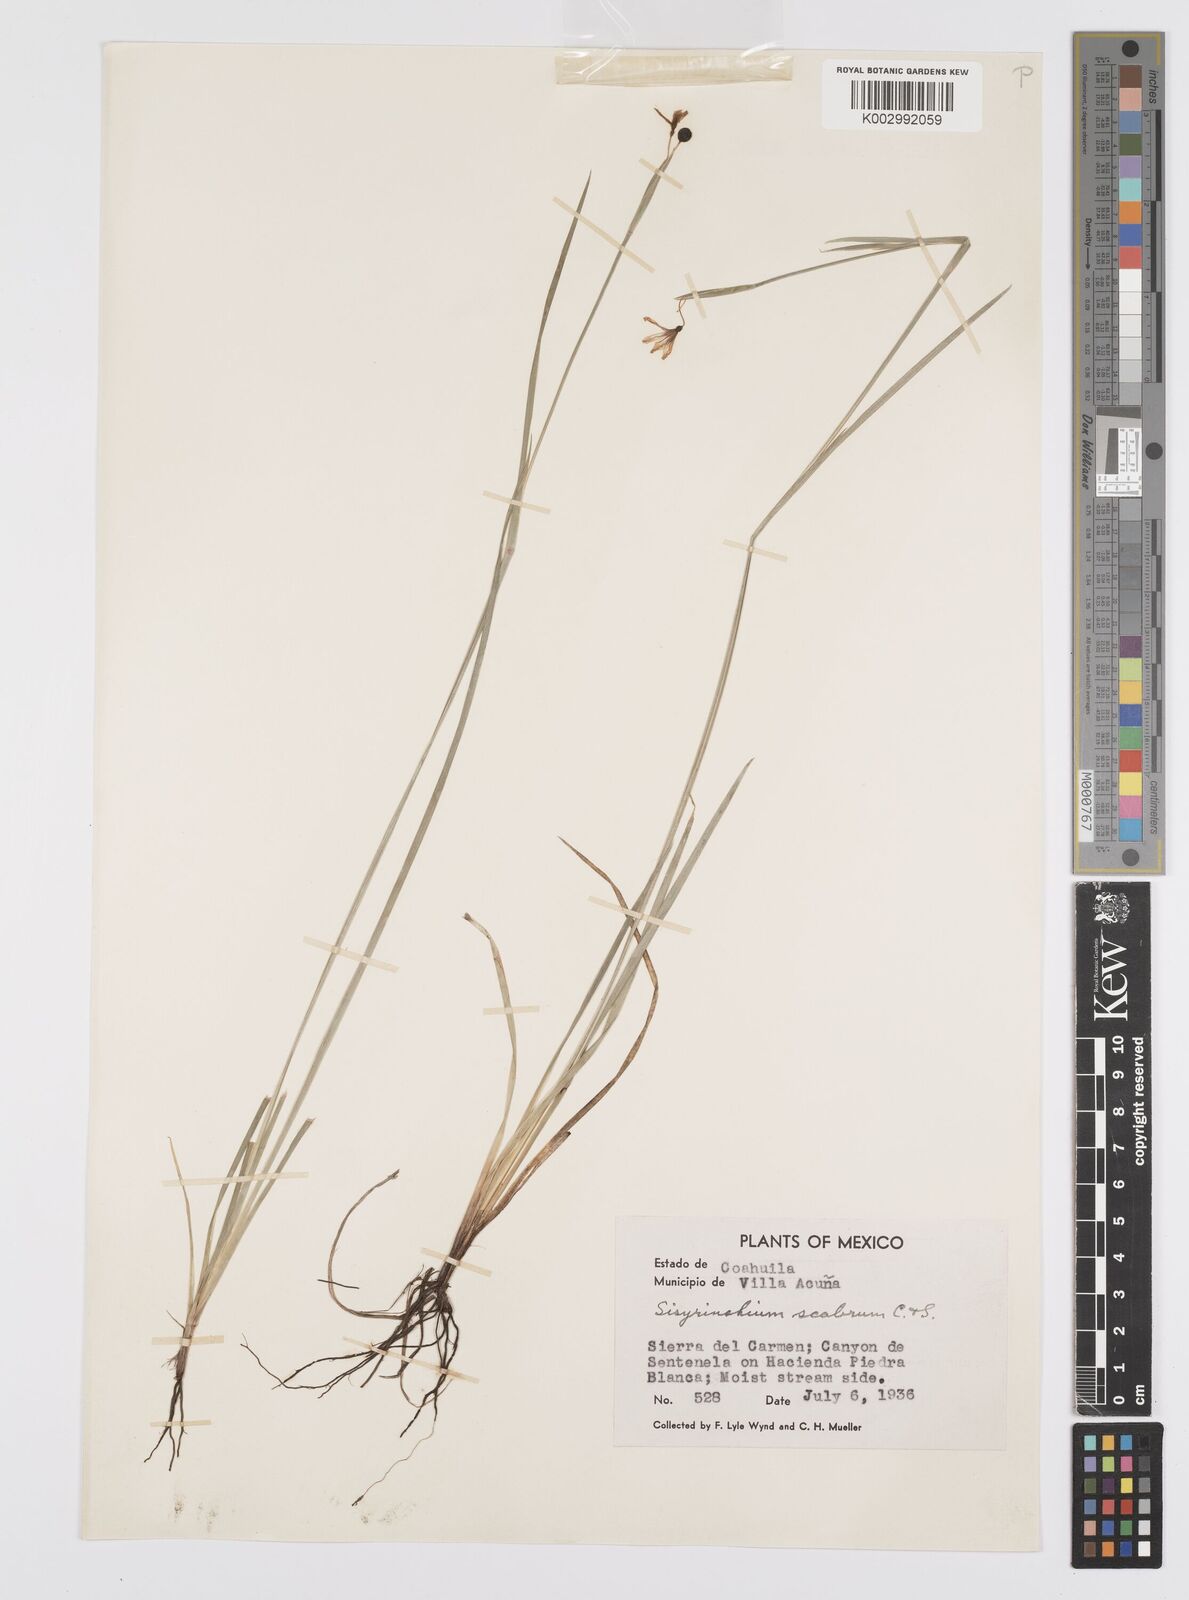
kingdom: Plantae
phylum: Tracheophyta
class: Liliopsida
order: Asparagales
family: Iridaceae
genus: Sisyrinchium
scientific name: Sisyrinchium scabrum
